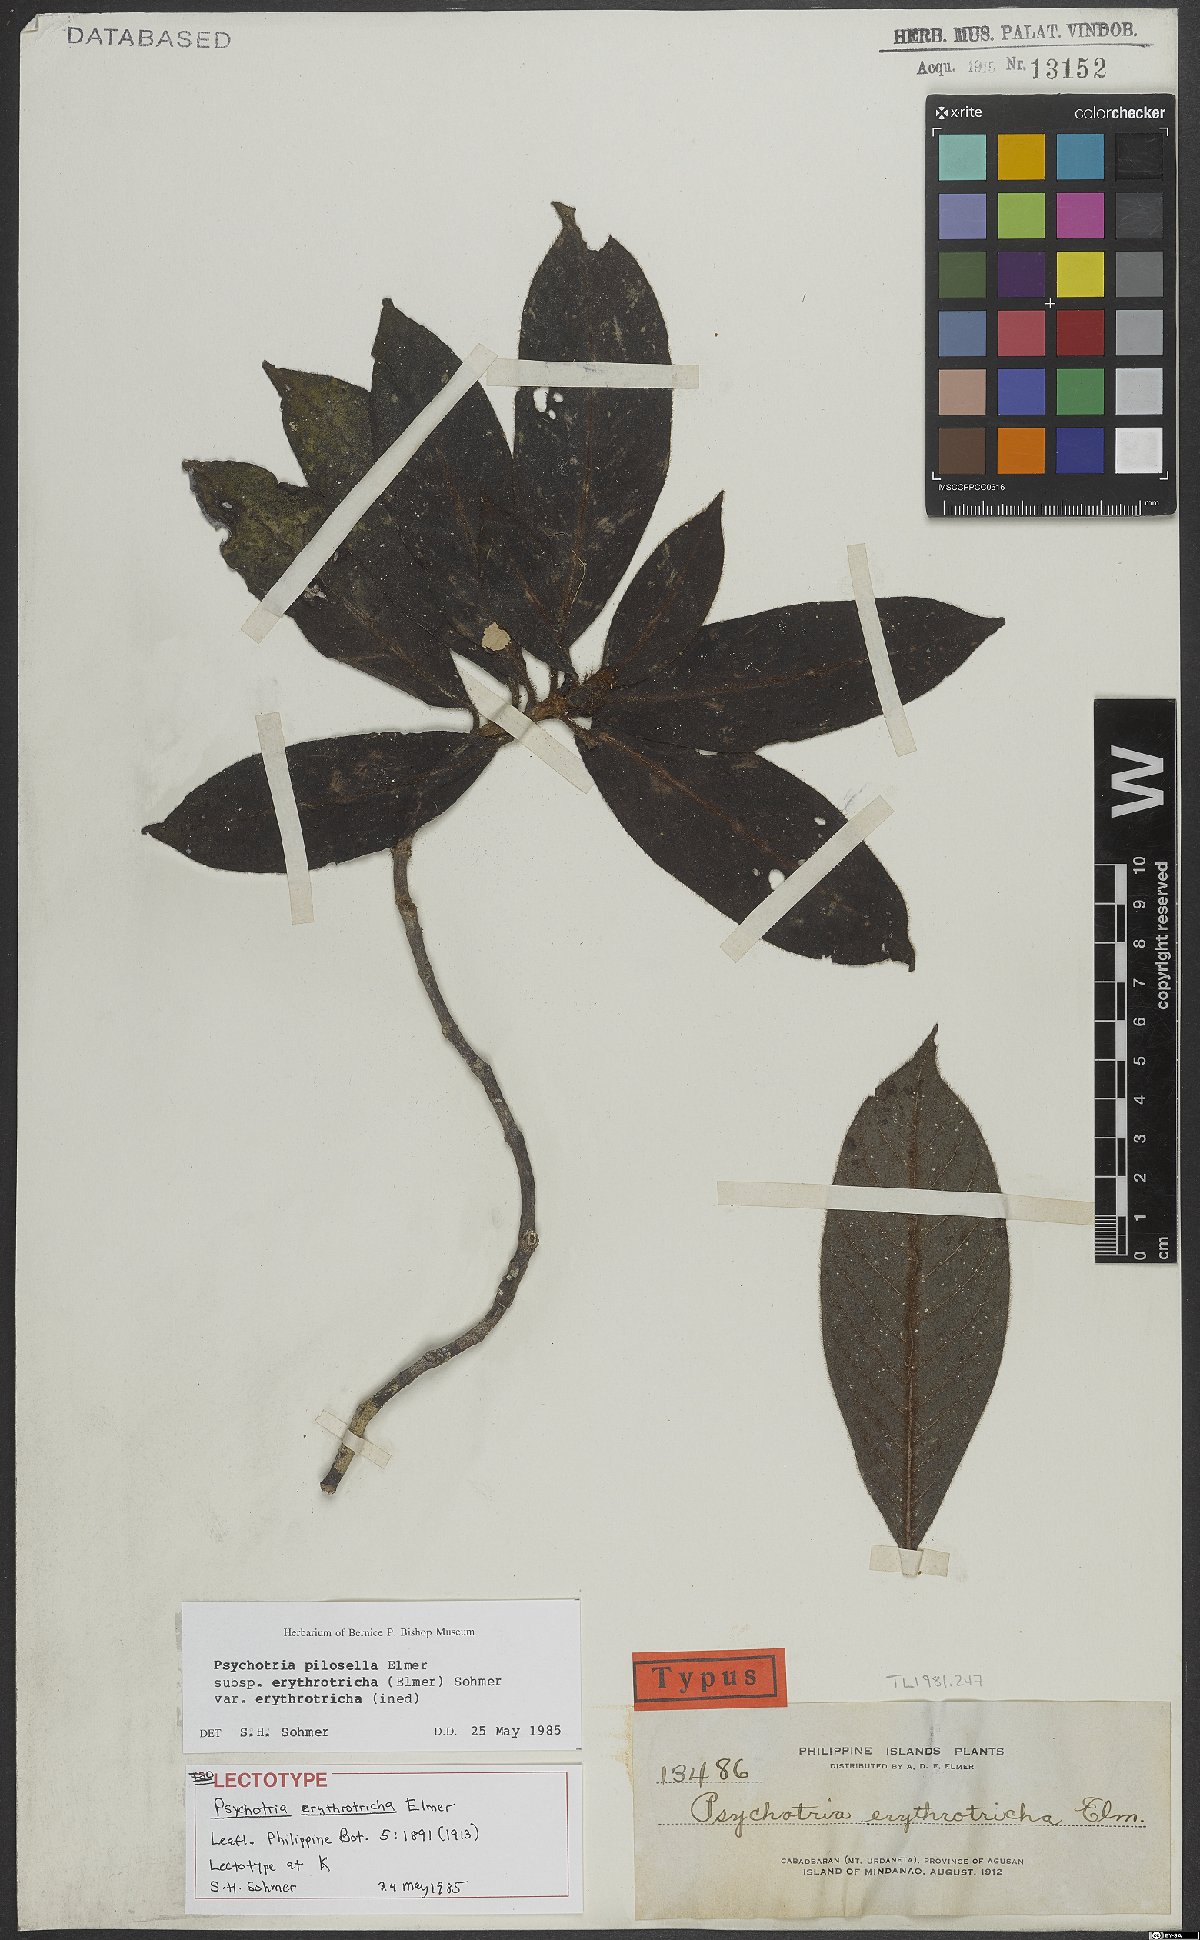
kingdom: Plantae
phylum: Tracheophyta
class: Magnoliopsida
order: Gentianales
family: Rubiaceae
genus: Psychotria
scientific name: Psychotria pilosella
